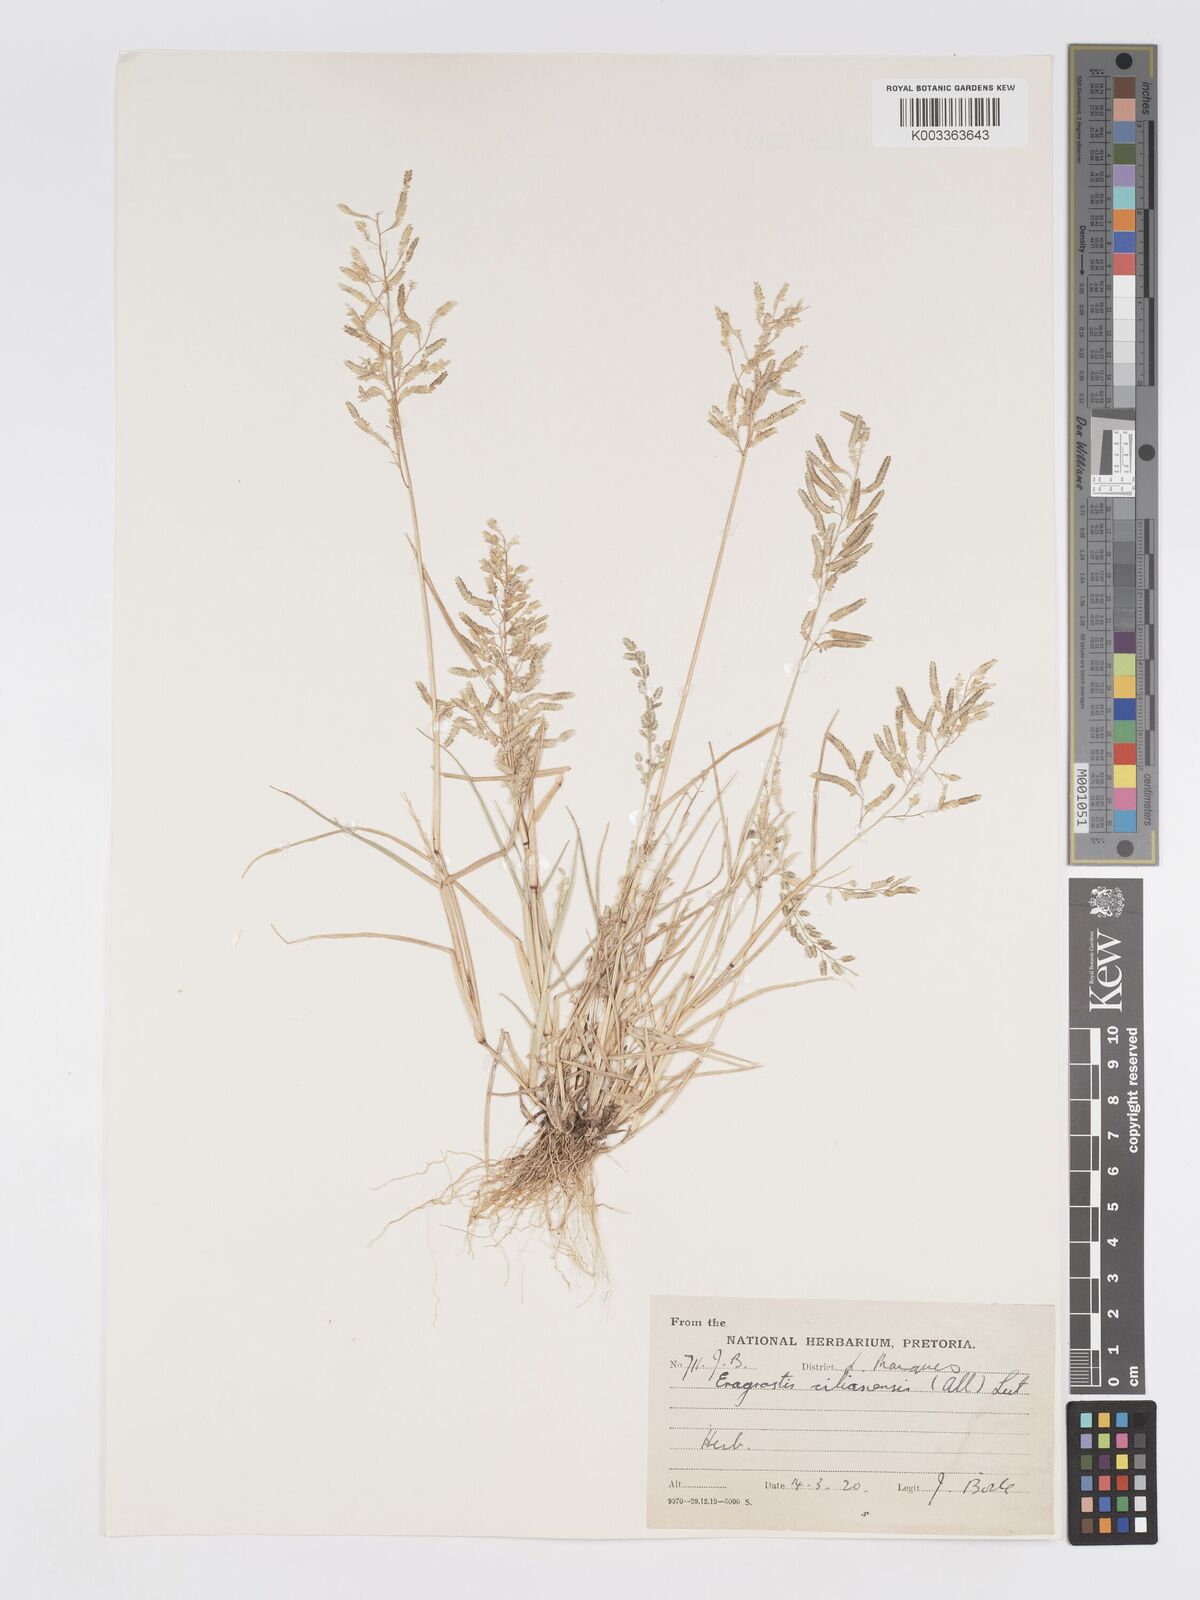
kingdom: Plantae
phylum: Tracheophyta
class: Liliopsida
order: Poales
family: Poaceae
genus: Eragrostis
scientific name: Eragrostis cilianensis
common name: Stinkgrass
